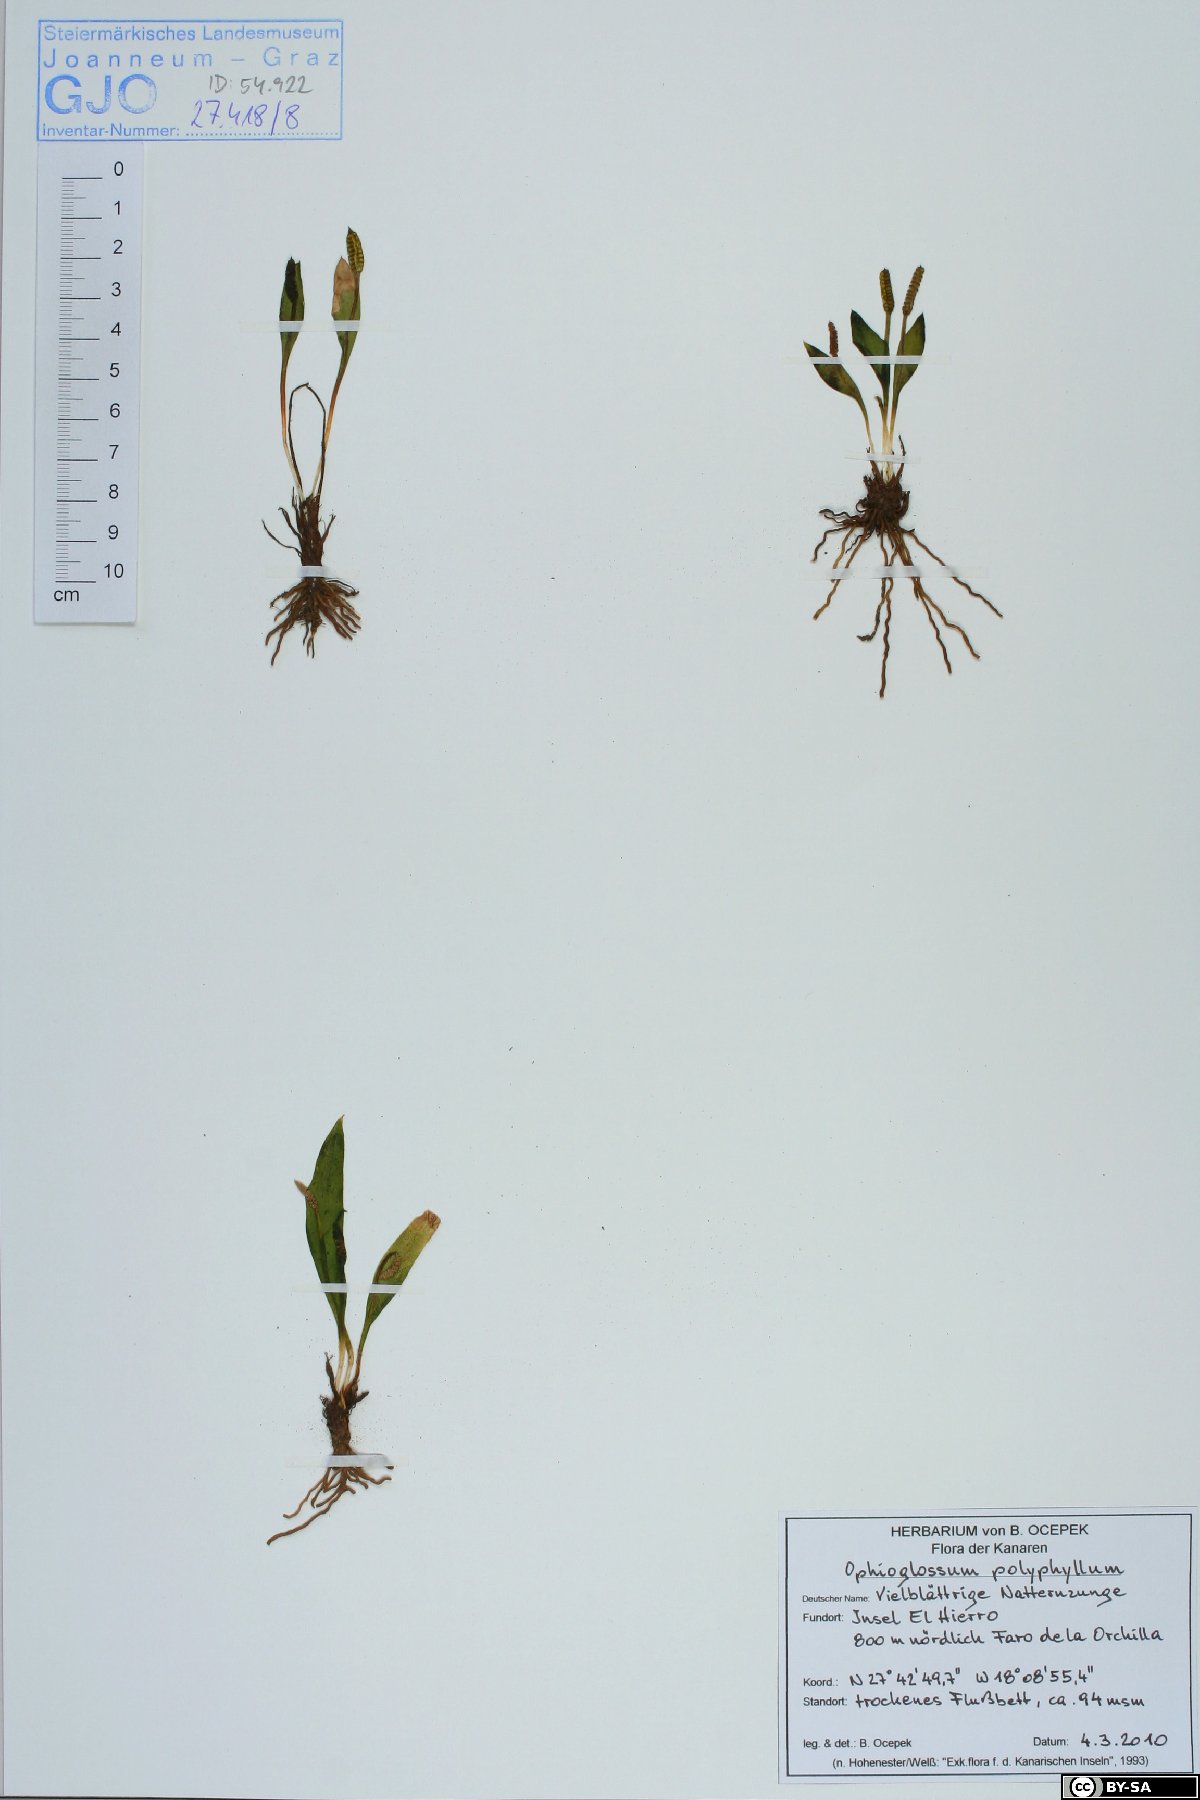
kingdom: Plantae
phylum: Tracheophyta
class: Polypodiopsida
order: Ophioglossales
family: Ophioglossaceae
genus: Ophioglossum
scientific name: Ophioglossum polyphyllum
